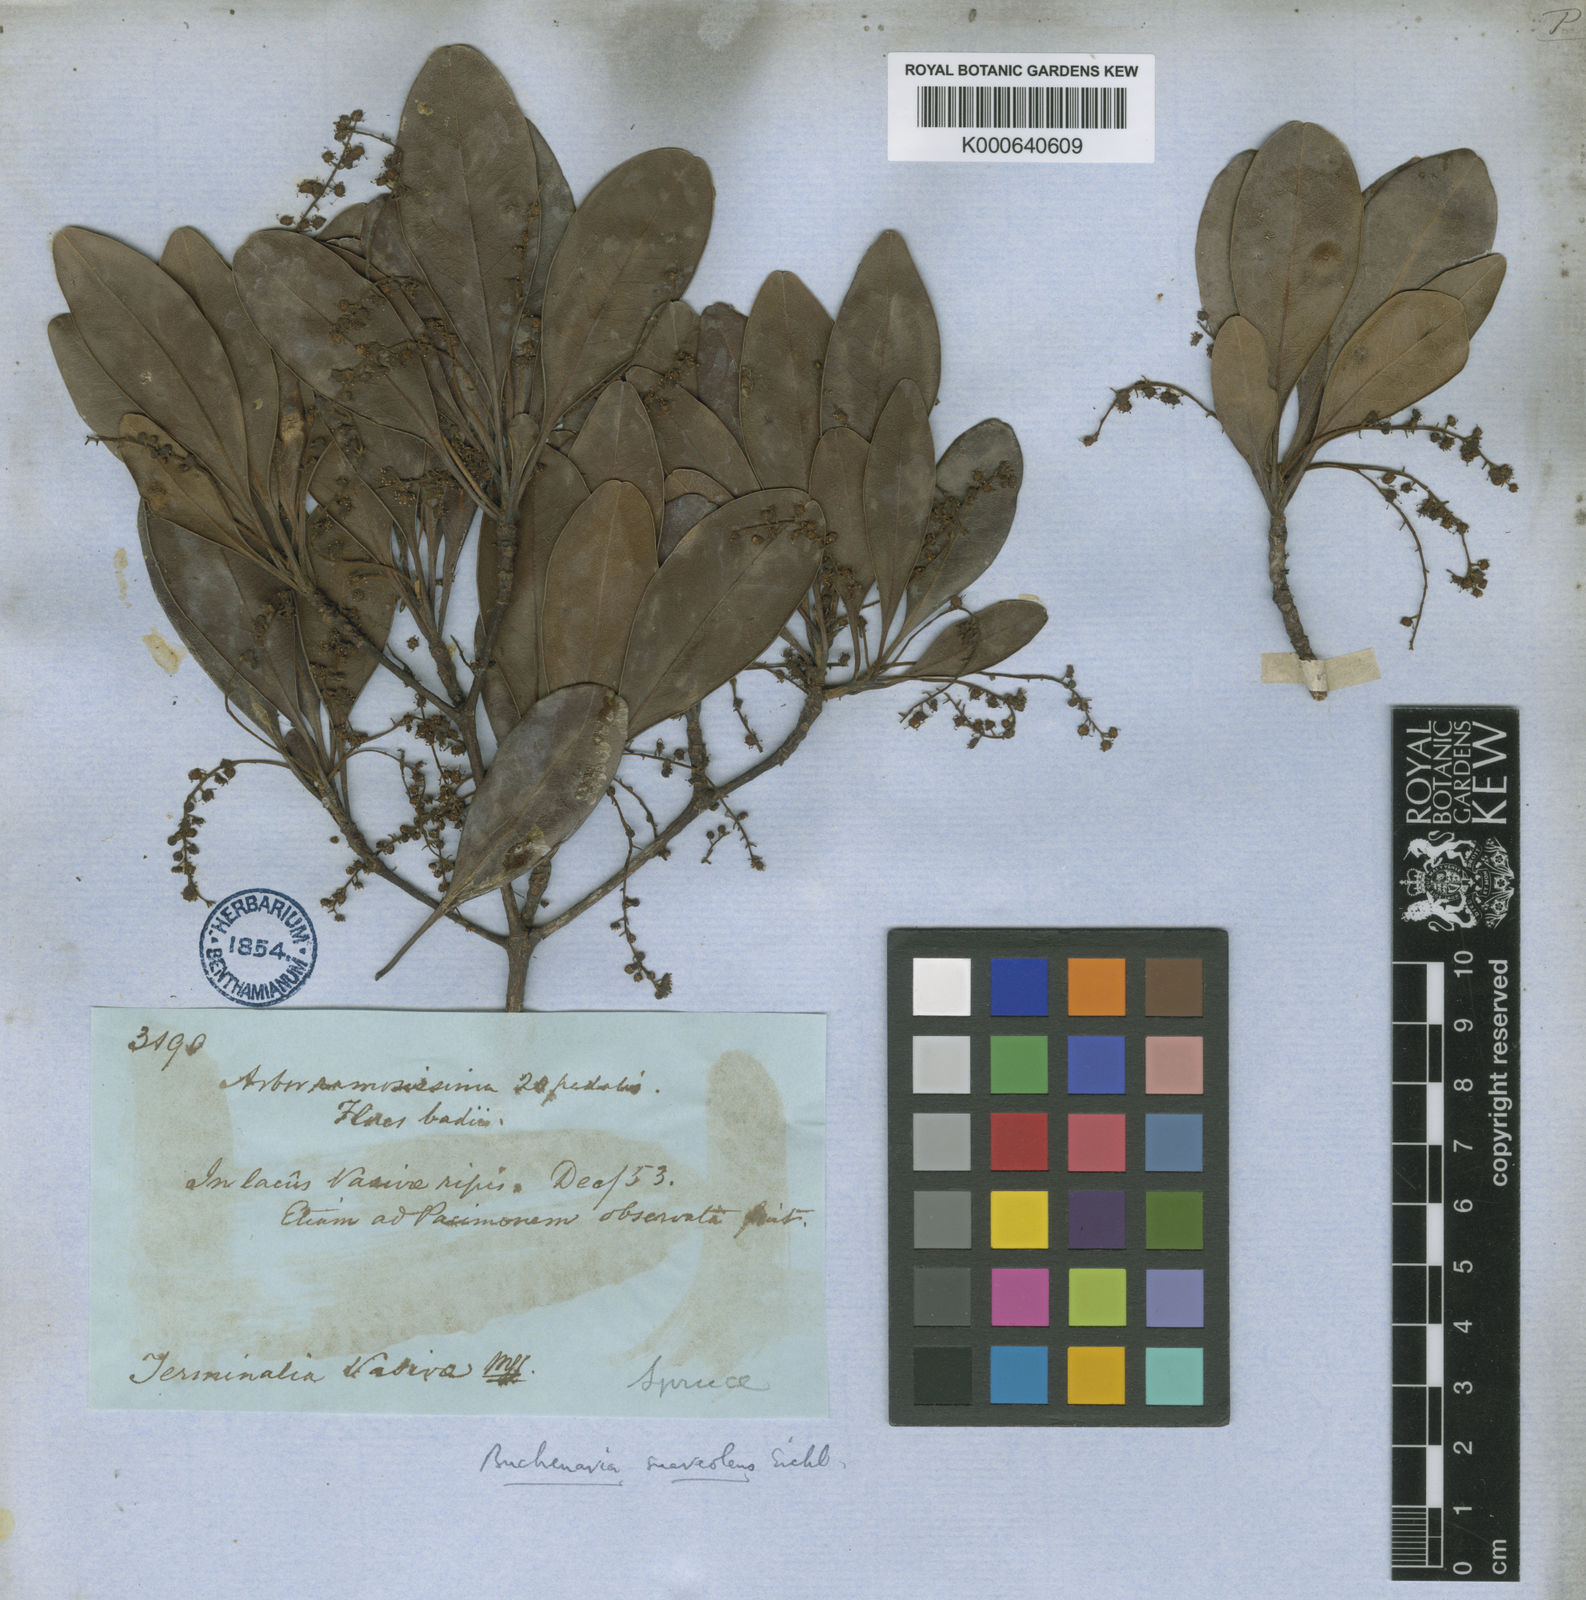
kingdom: Plantae
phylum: Tracheophyta
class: Magnoliopsida
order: Myrtales
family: Combretaceae
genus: Terminalia
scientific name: Terminalia suaveolens
